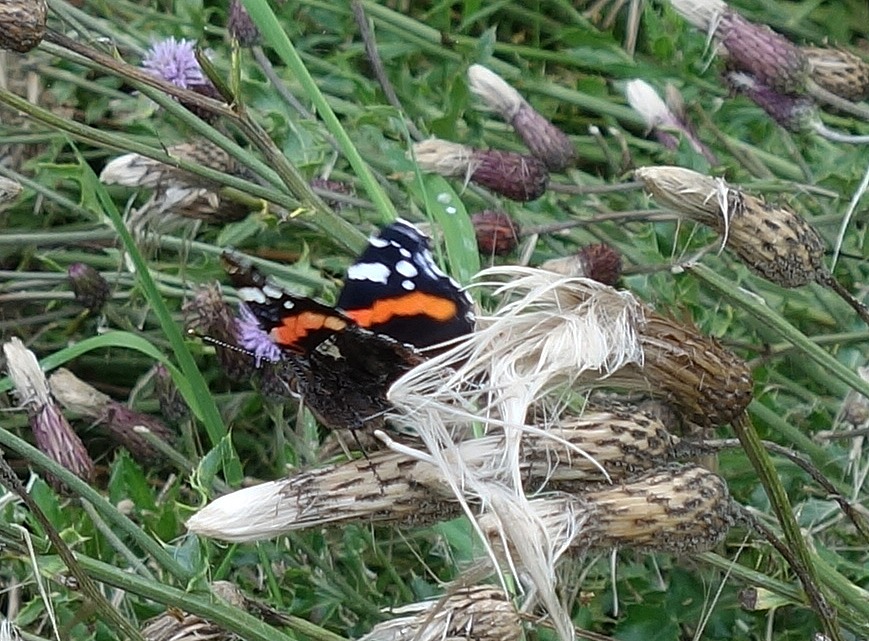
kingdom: Animalia
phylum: Arthropoda
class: Insecta
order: Lepidoptera
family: Nymphalidae
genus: Vanessa
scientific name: Vanessa atalanta
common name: Admiral
